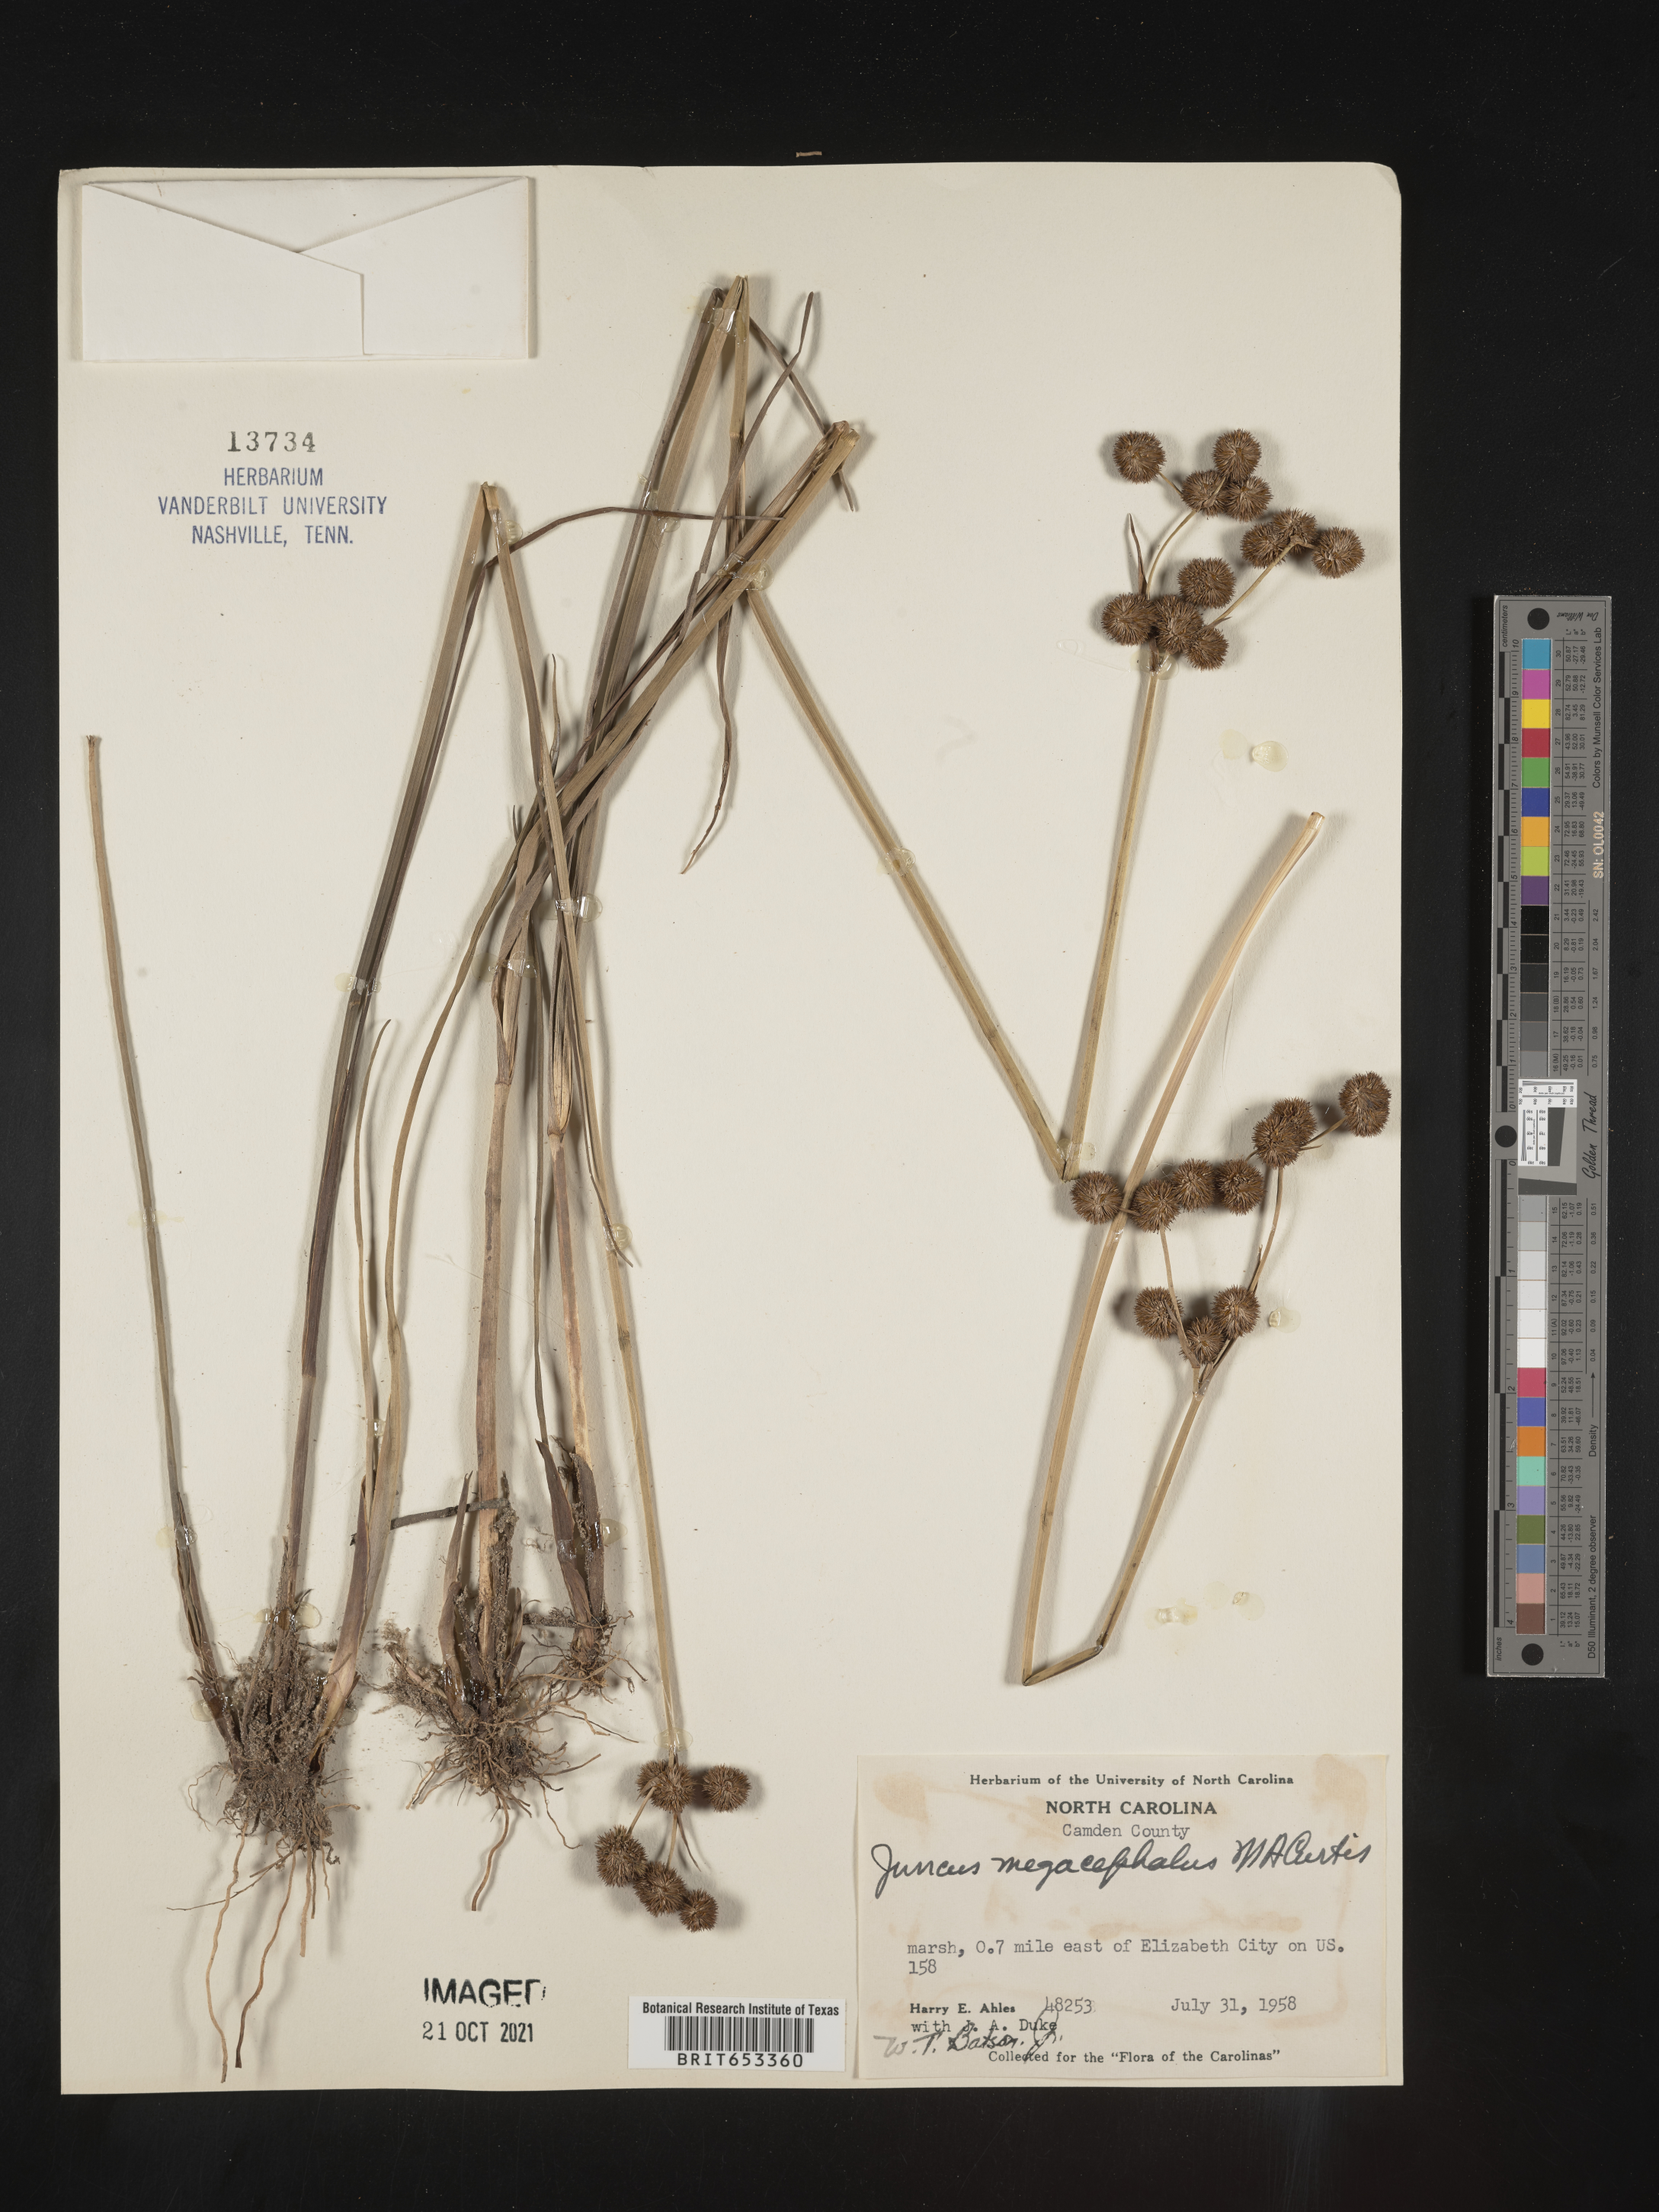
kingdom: Plantae
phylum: Tracheophyta
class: Liliopsida
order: Poales
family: Juncaceae
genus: Juncus
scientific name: Juncus megacephalus
